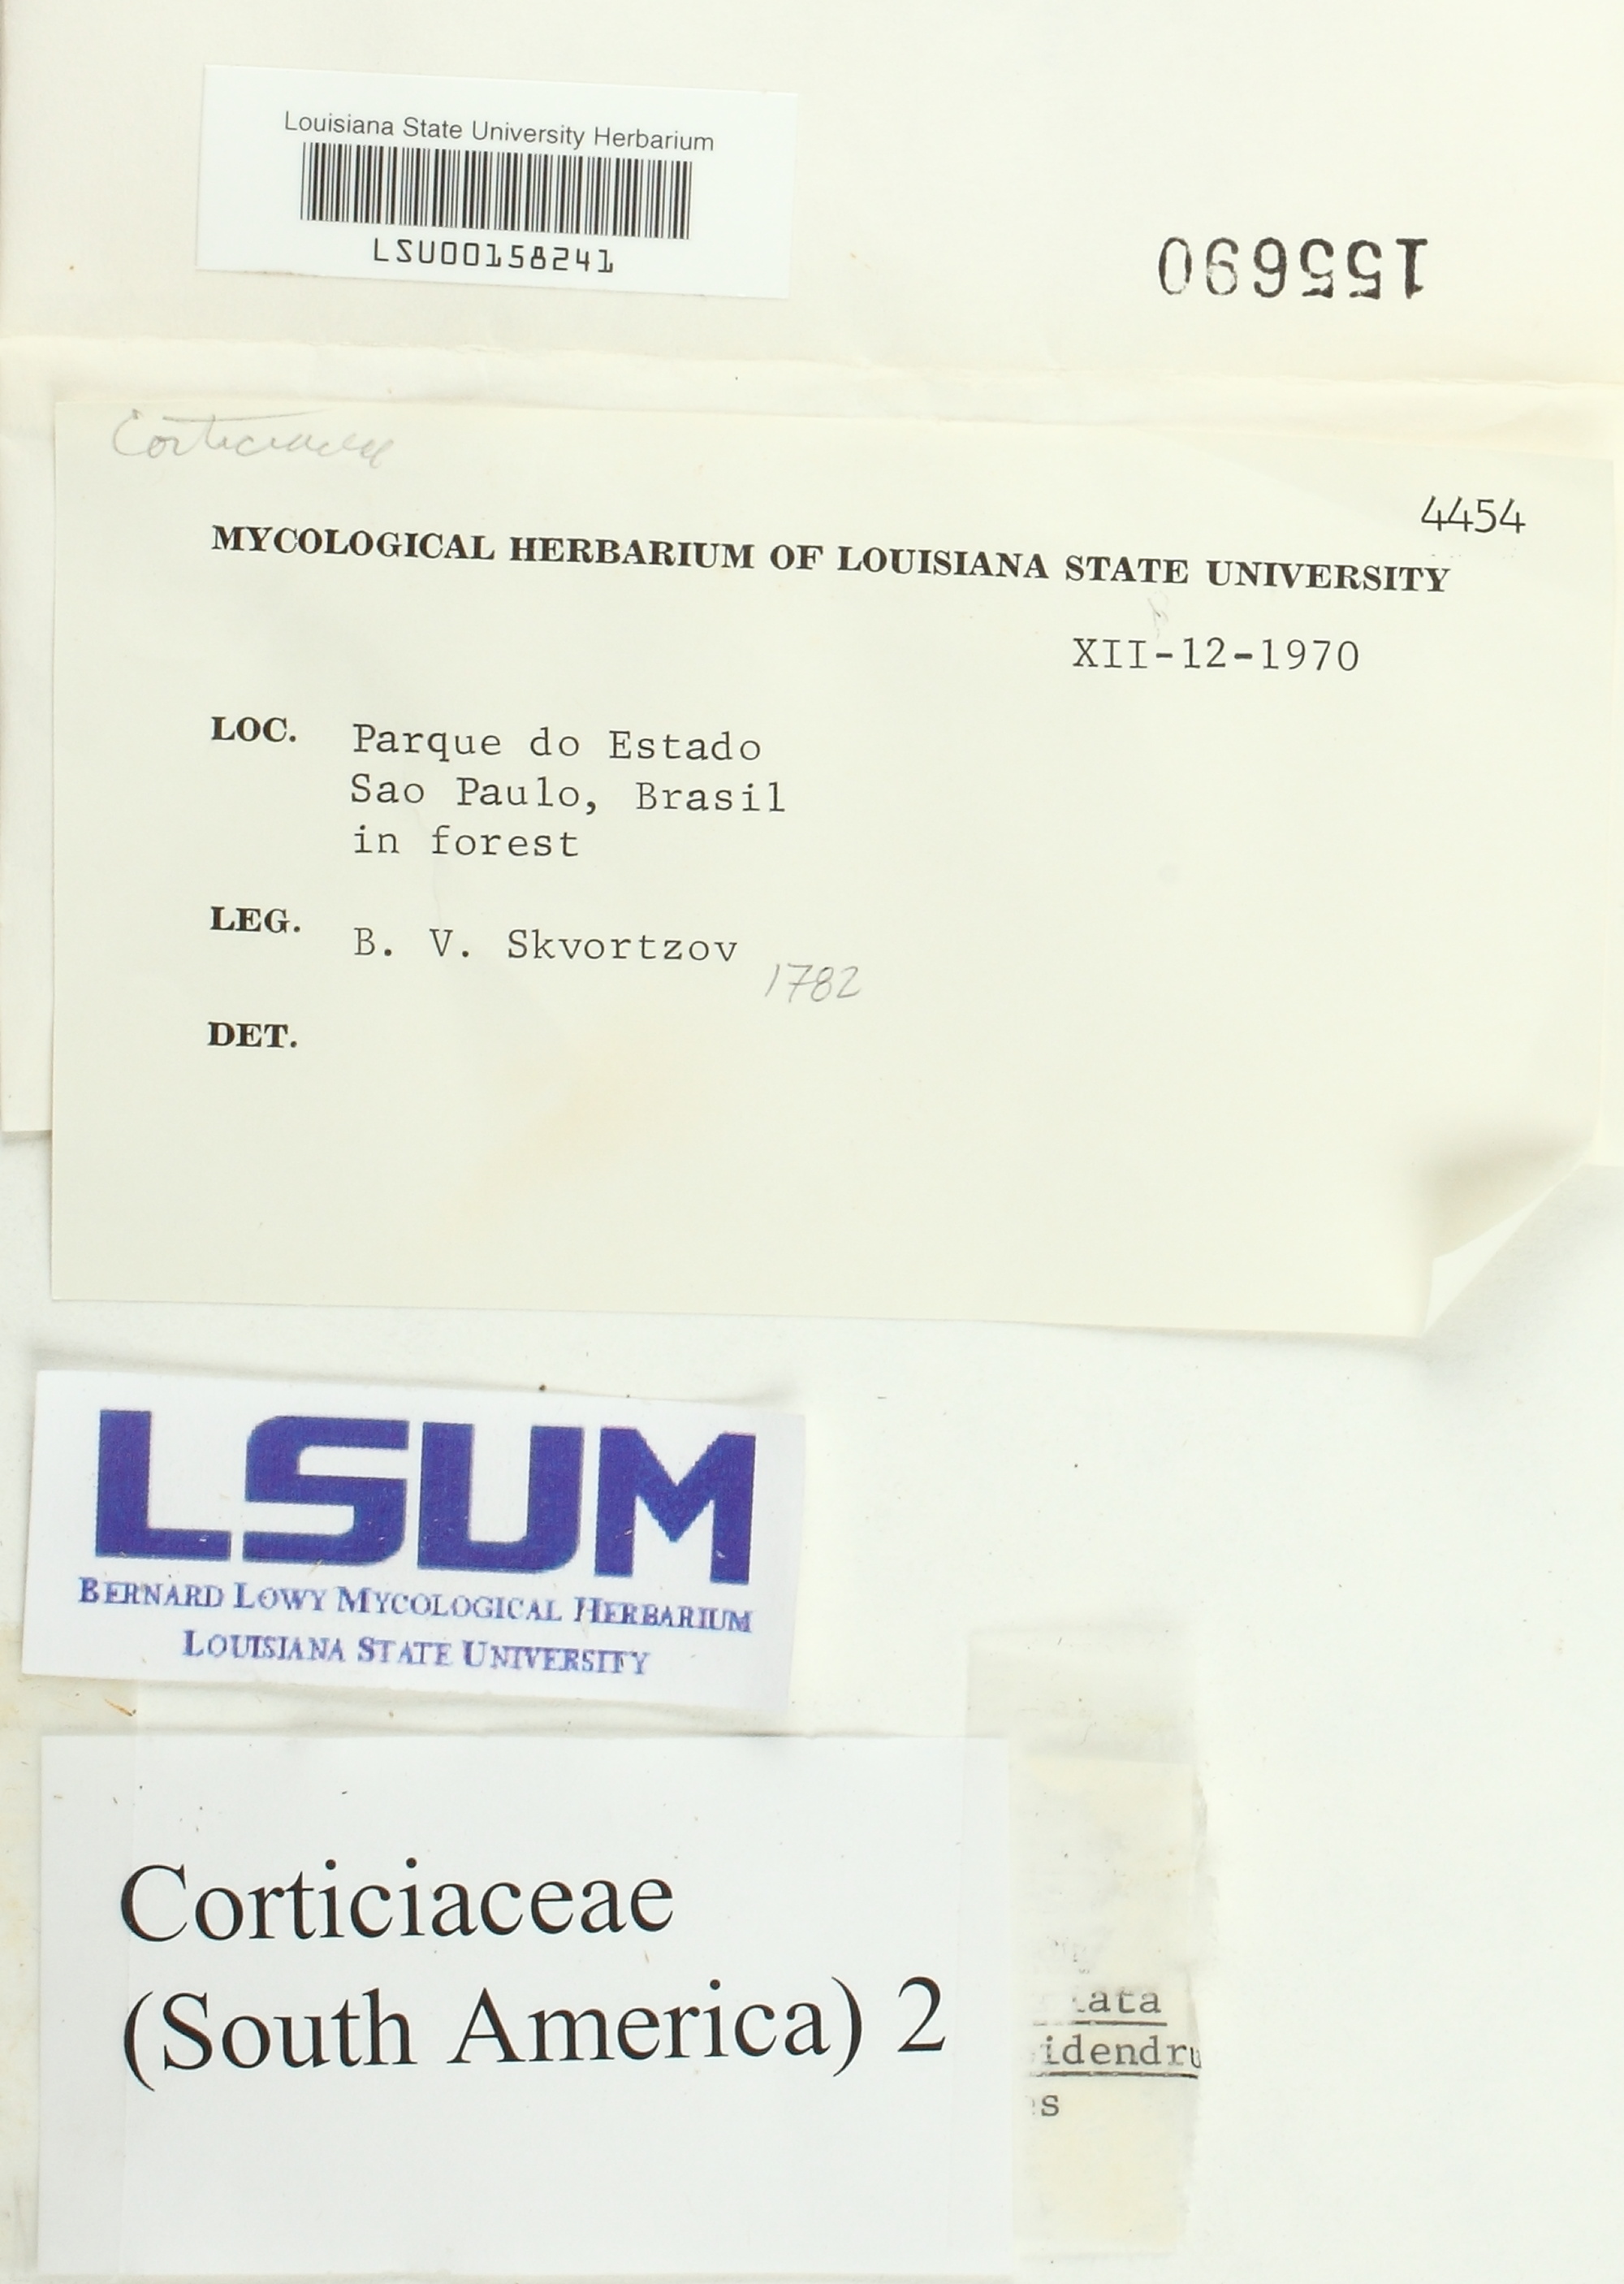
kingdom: Fungi
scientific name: Fungi
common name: Fungi
